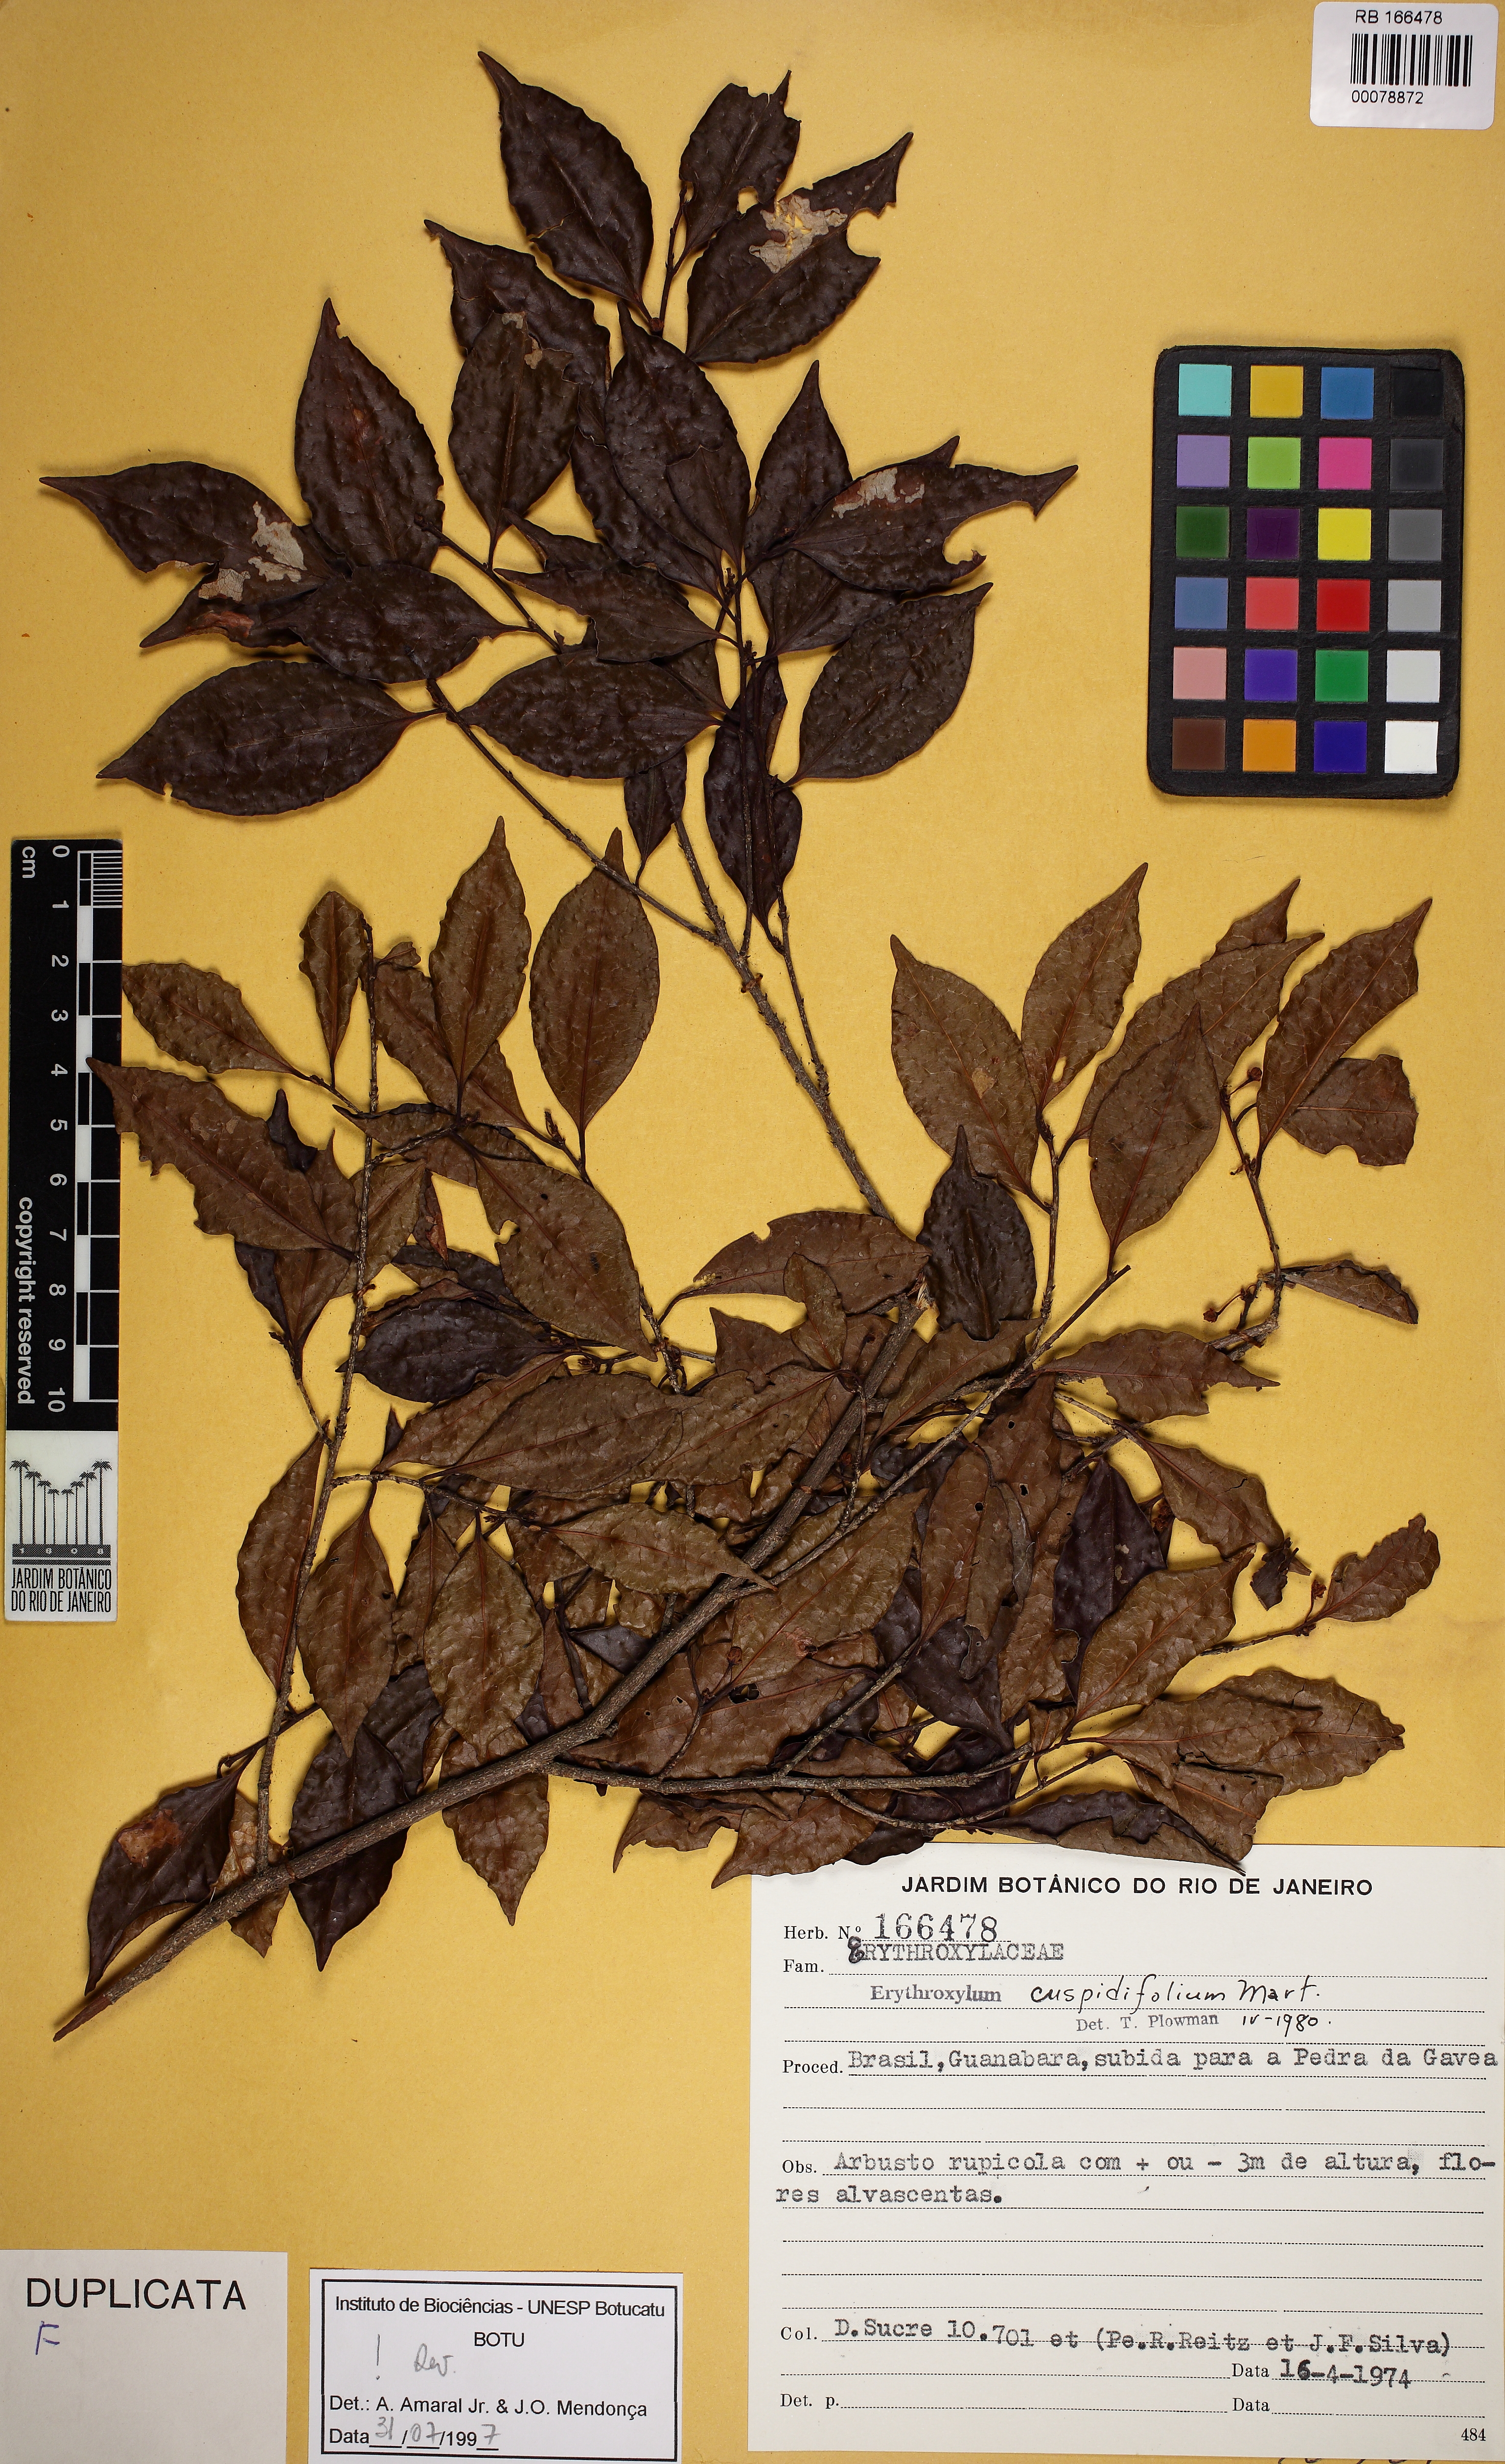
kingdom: Plantae
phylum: Tracheophyta
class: Magnoliopsida
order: Malpighiales
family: Erythroxylaceae
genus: Erythroxylum
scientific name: Erythroxylum cuspidifolium
